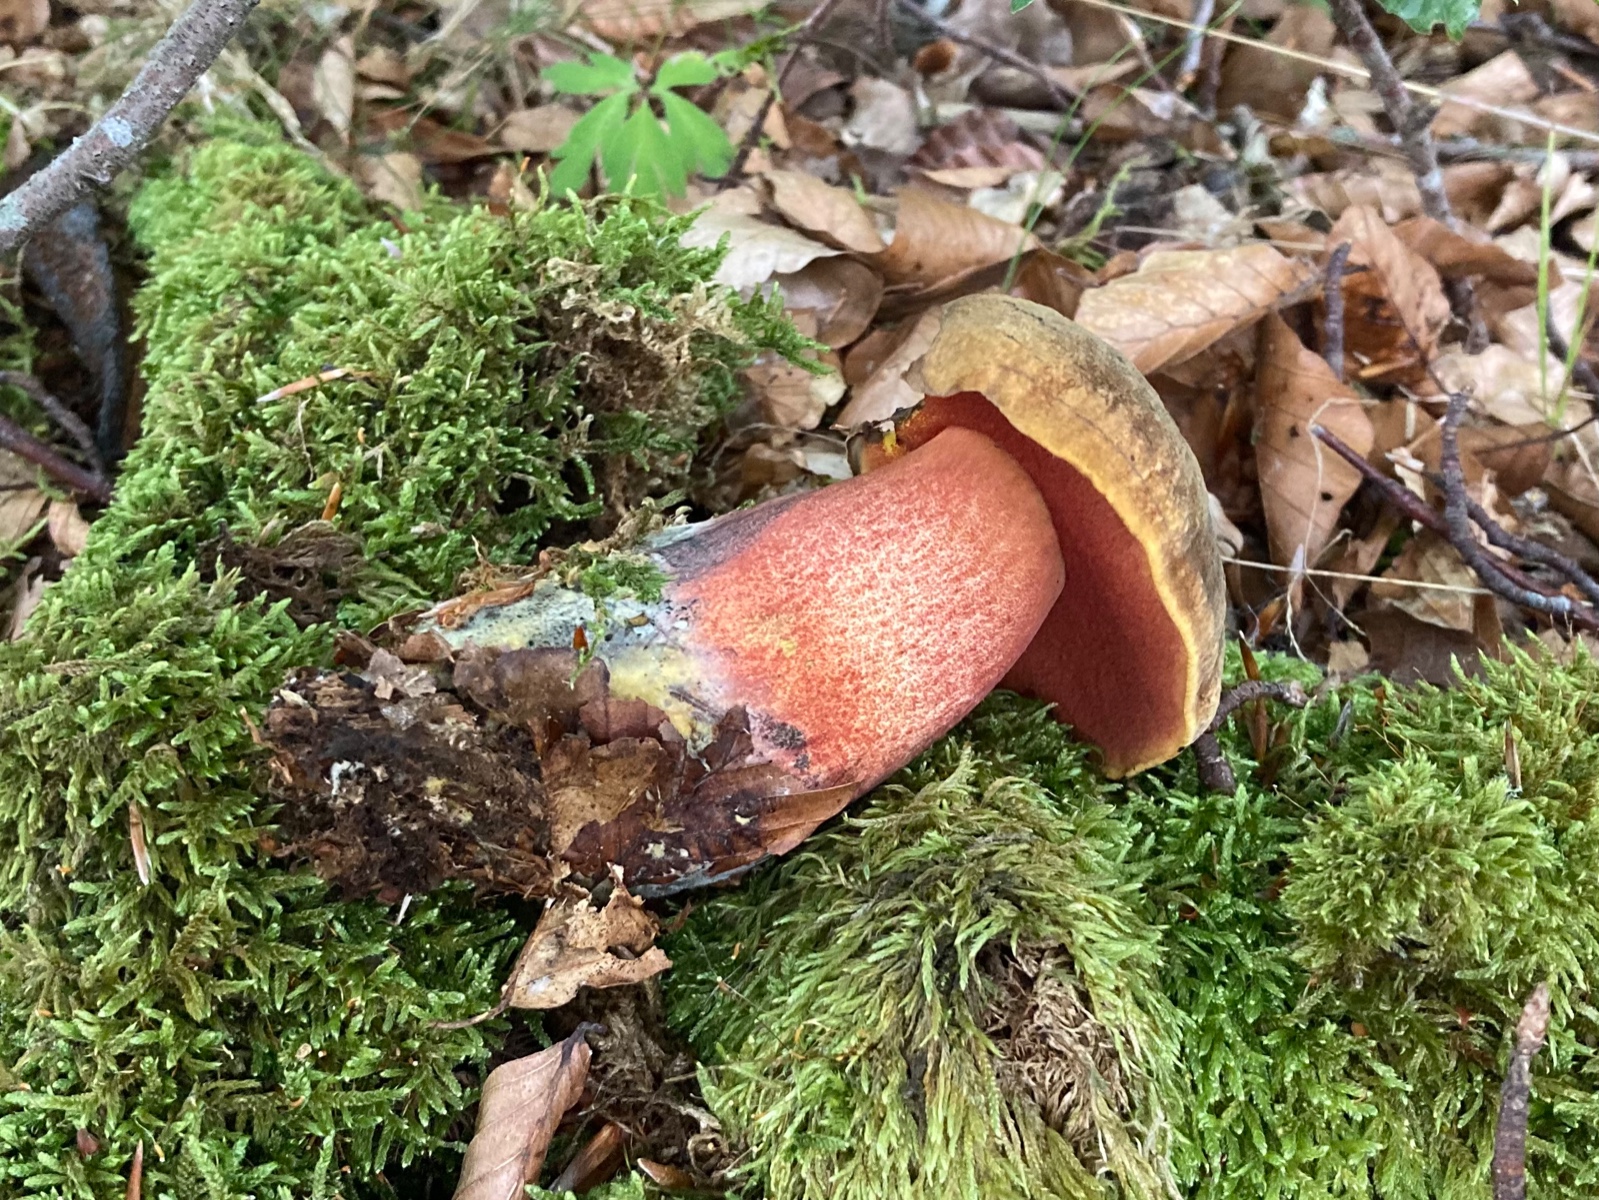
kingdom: Fungi
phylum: Basidiomycota
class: Agaricomycetes
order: Boletales
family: Boletaceae
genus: Neoboletus
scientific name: Neoboletus erythropus
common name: punktstokket indigorørhat
